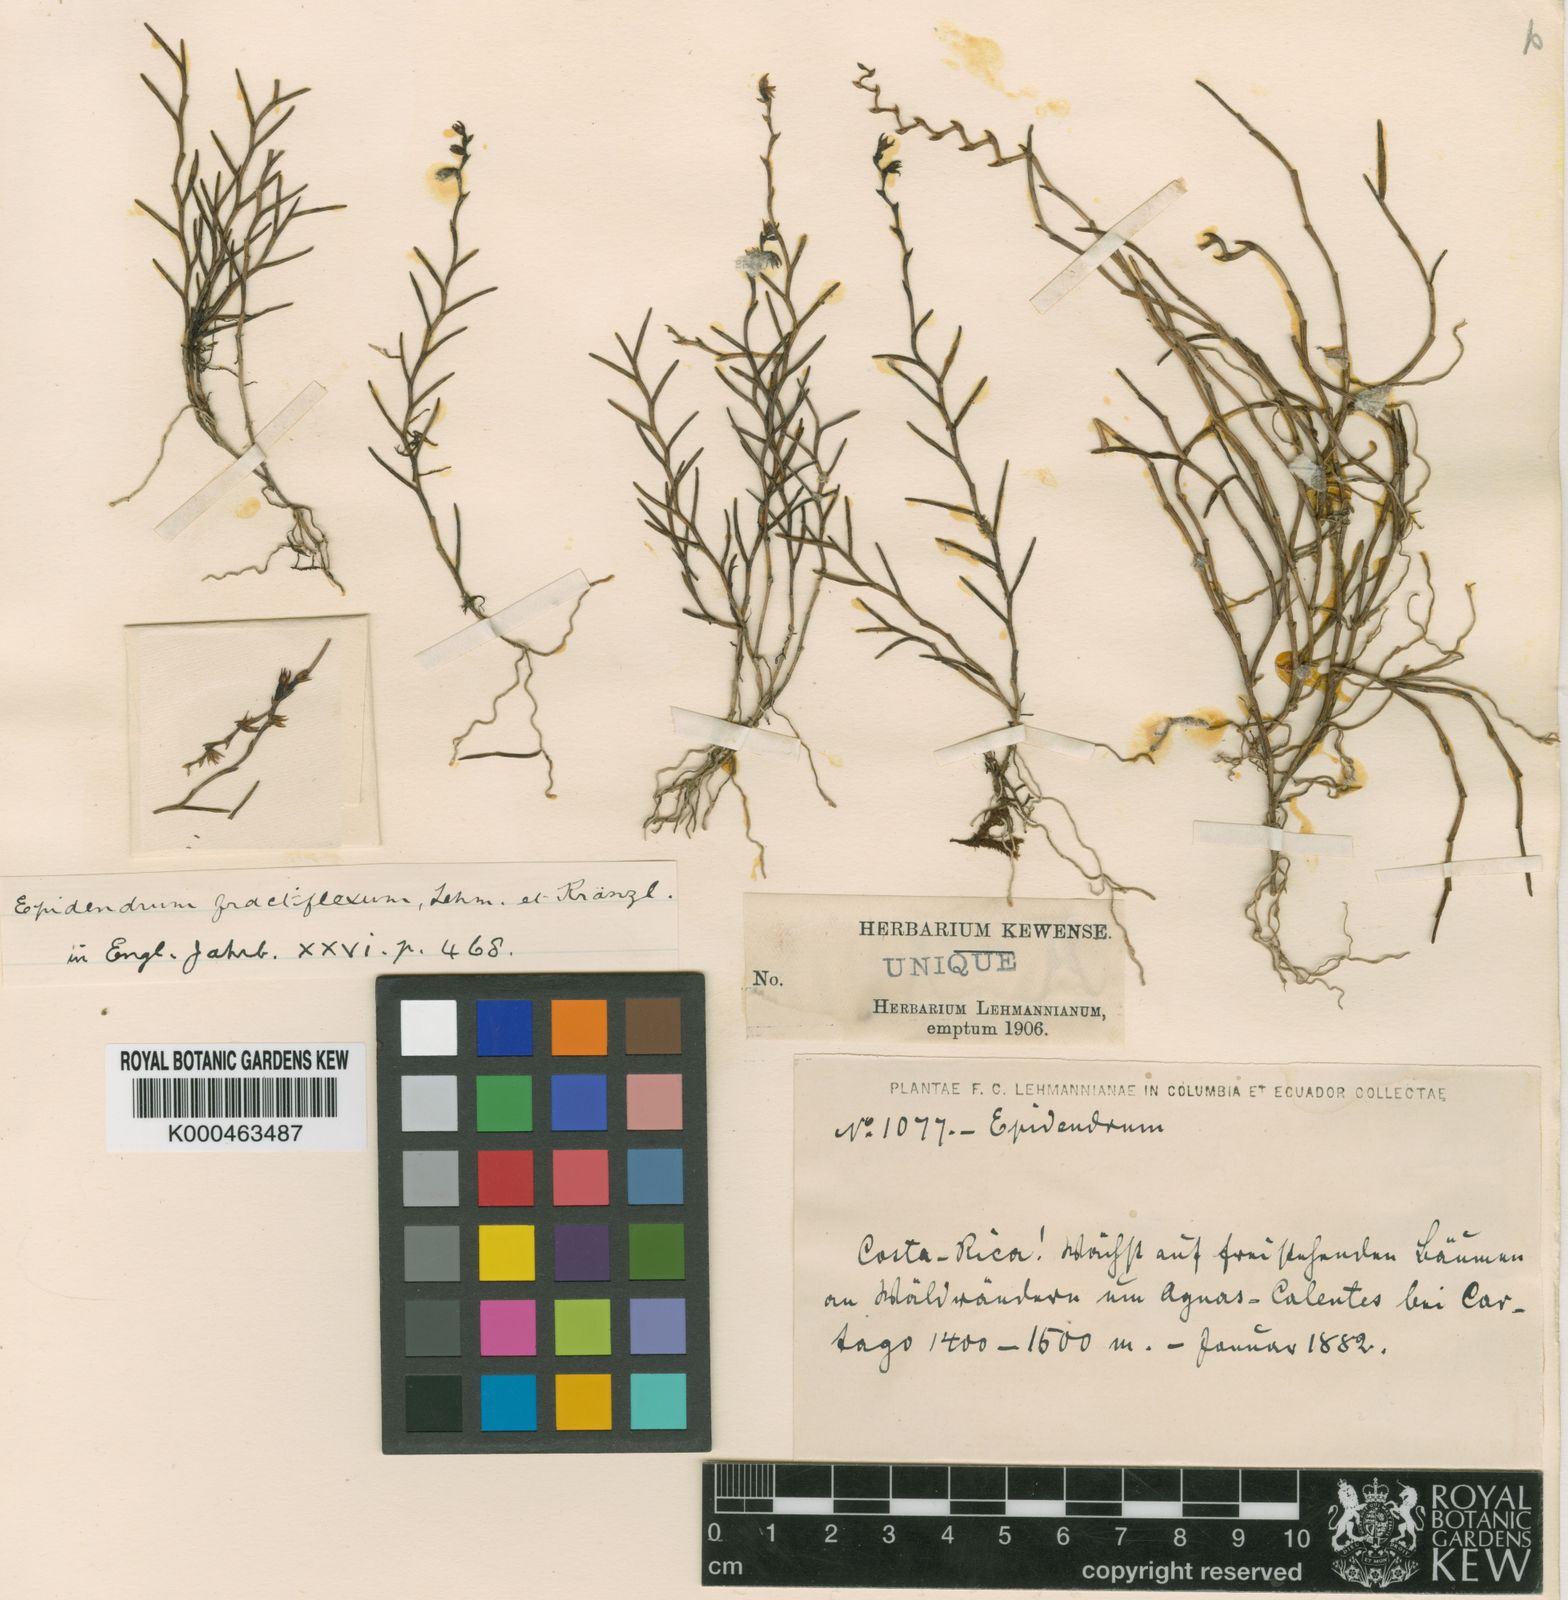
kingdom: Plantae
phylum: Tracheophyta
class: Liliopsida
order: Asparagales
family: Orchidaceae
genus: Epidendrum
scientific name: Epidendrum goniorhachis
